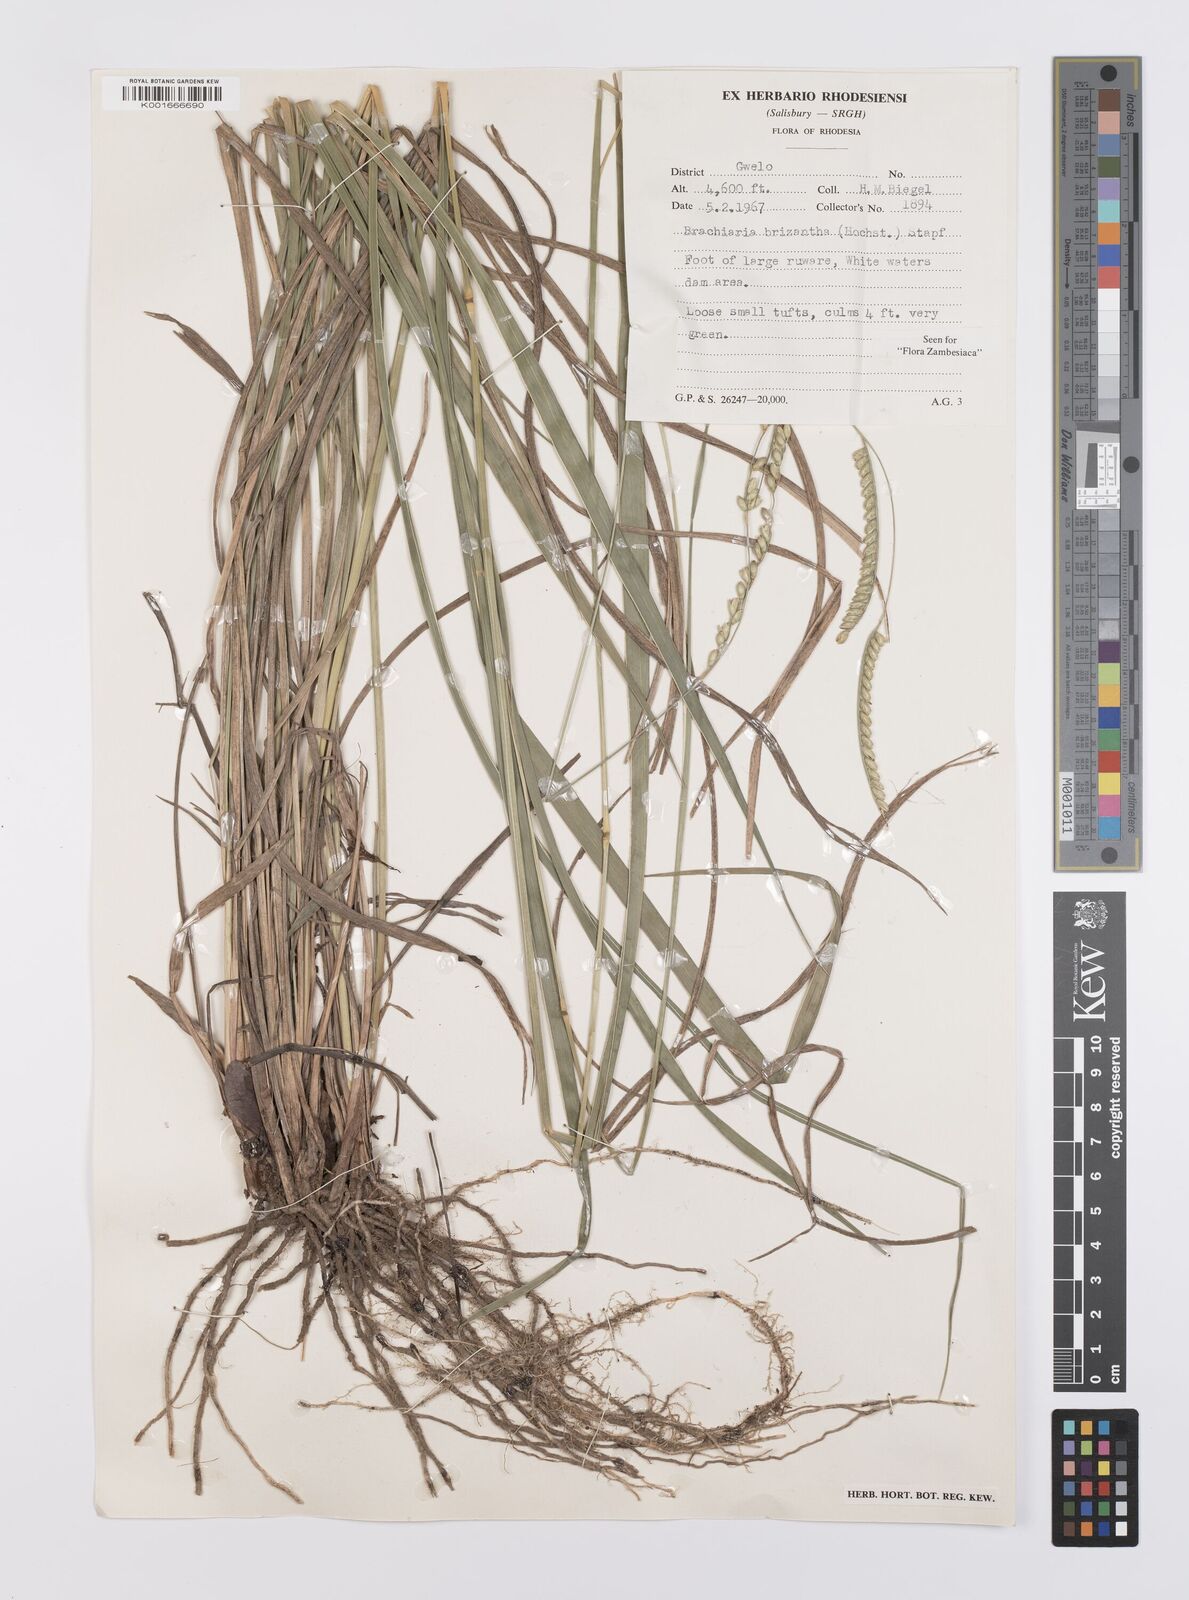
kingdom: Plantae
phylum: Tracheophyta
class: Liliopsida
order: Poales
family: Poaceae
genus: Urochloa
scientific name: Urochloa brizantha
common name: Palisade signalgrass
